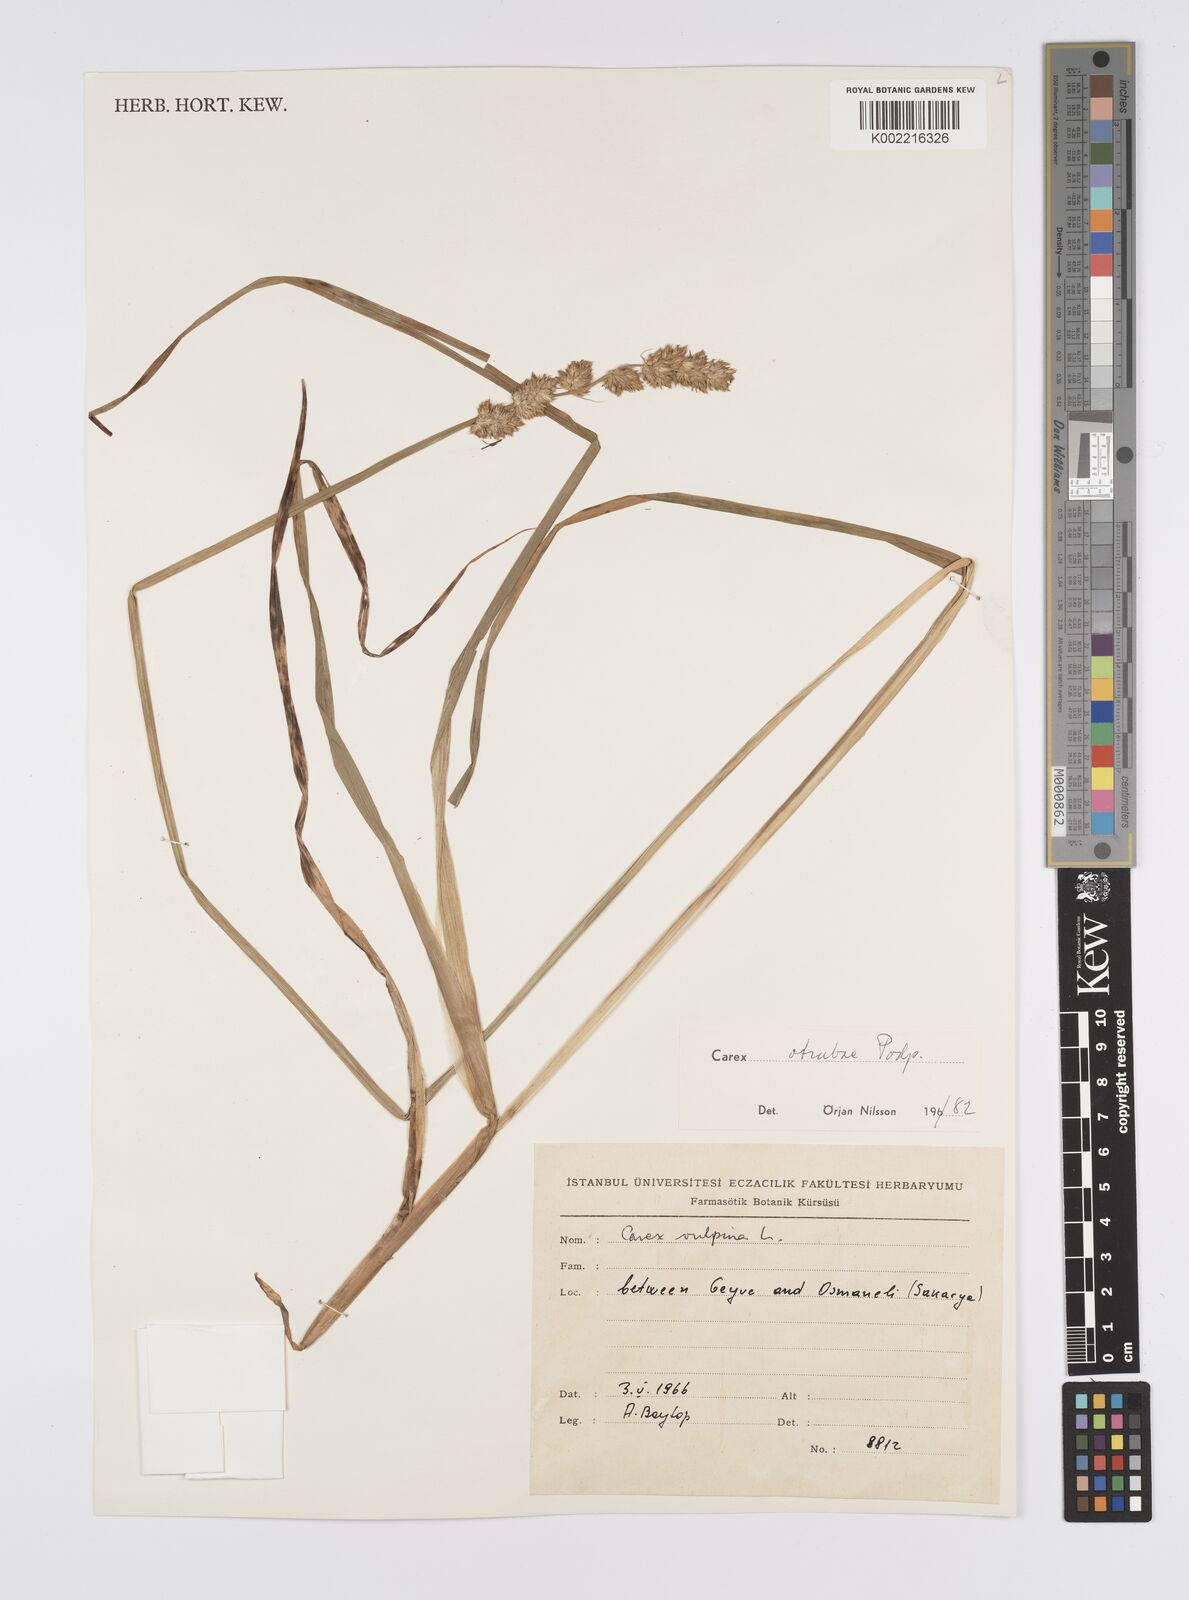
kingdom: Plantae
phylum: Tracheophyta
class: Liliopsida
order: Poales
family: Cyperaceae
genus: Carex
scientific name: Carex otrubae
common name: False fox-sedge
